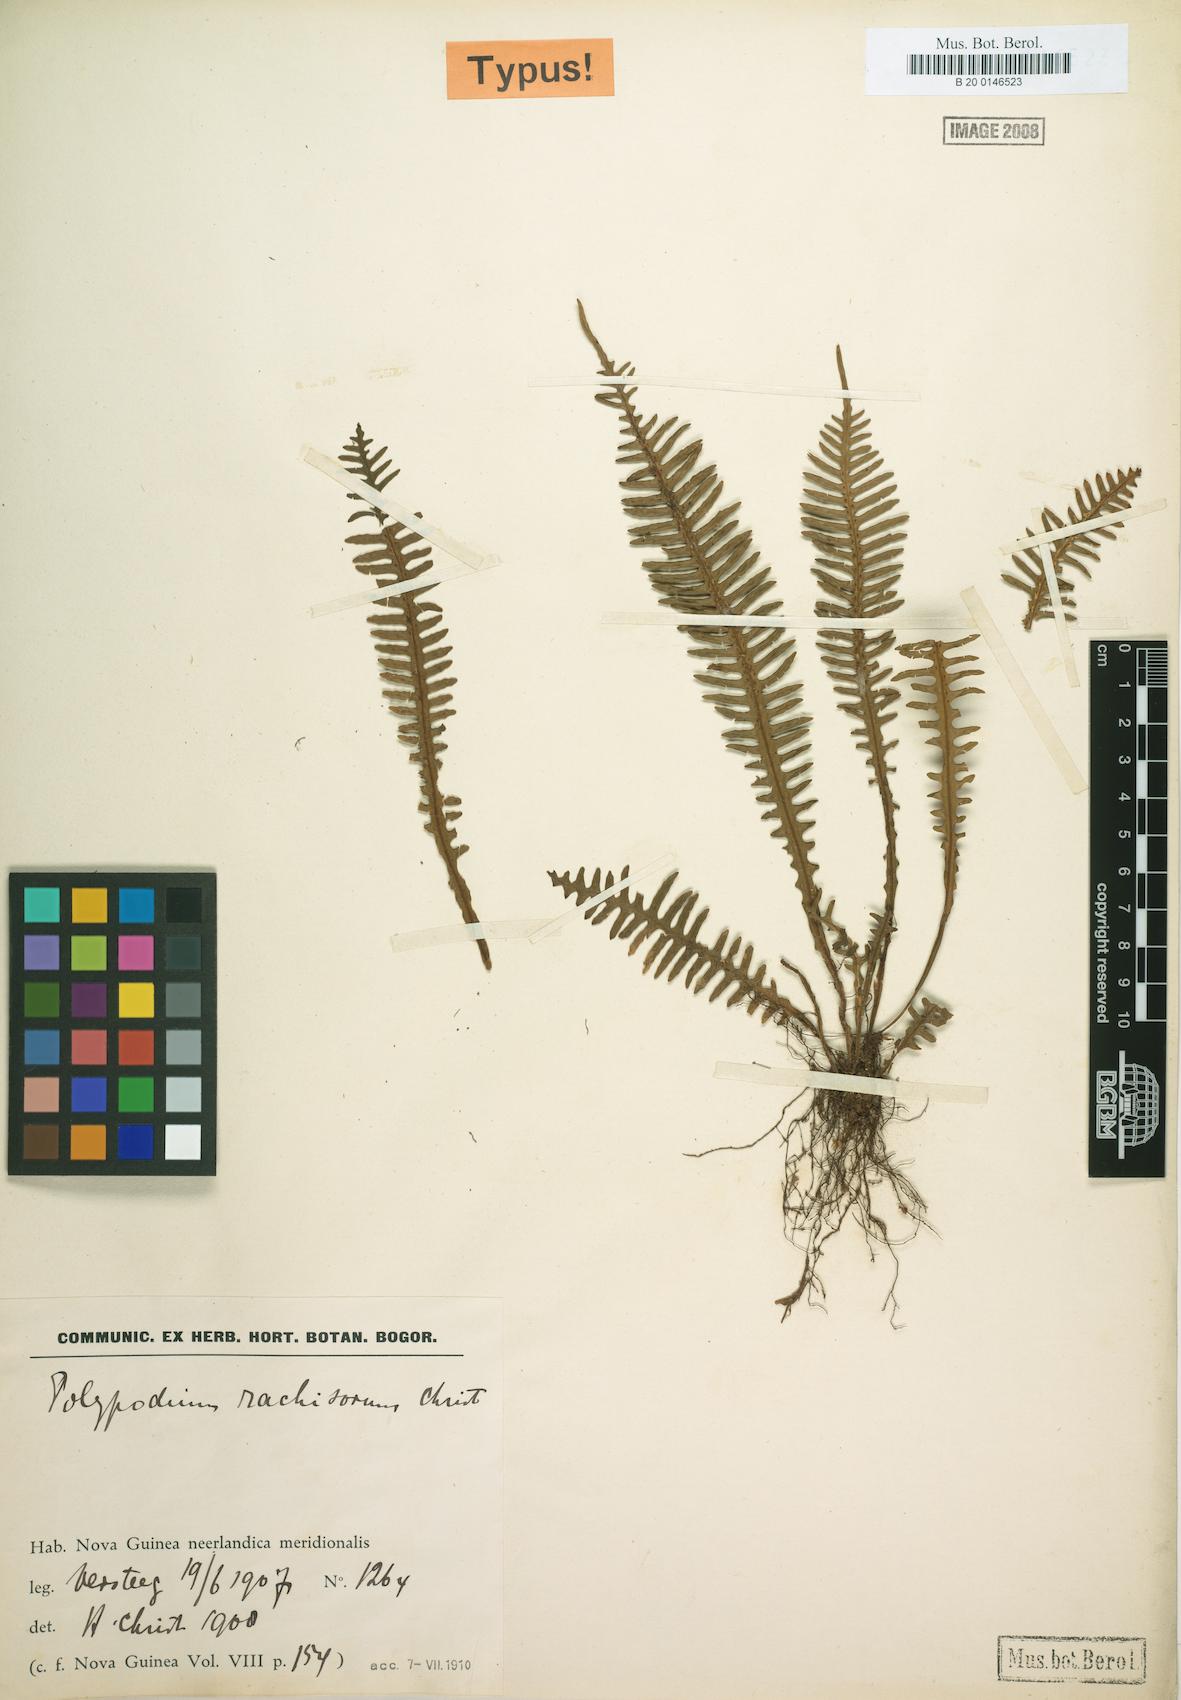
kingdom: Plantae
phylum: Tracheophyta
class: Polypodiopsida
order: Polypodiales
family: Polypodiaceae
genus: Prosaptia
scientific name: Prosaptia burbidgei
